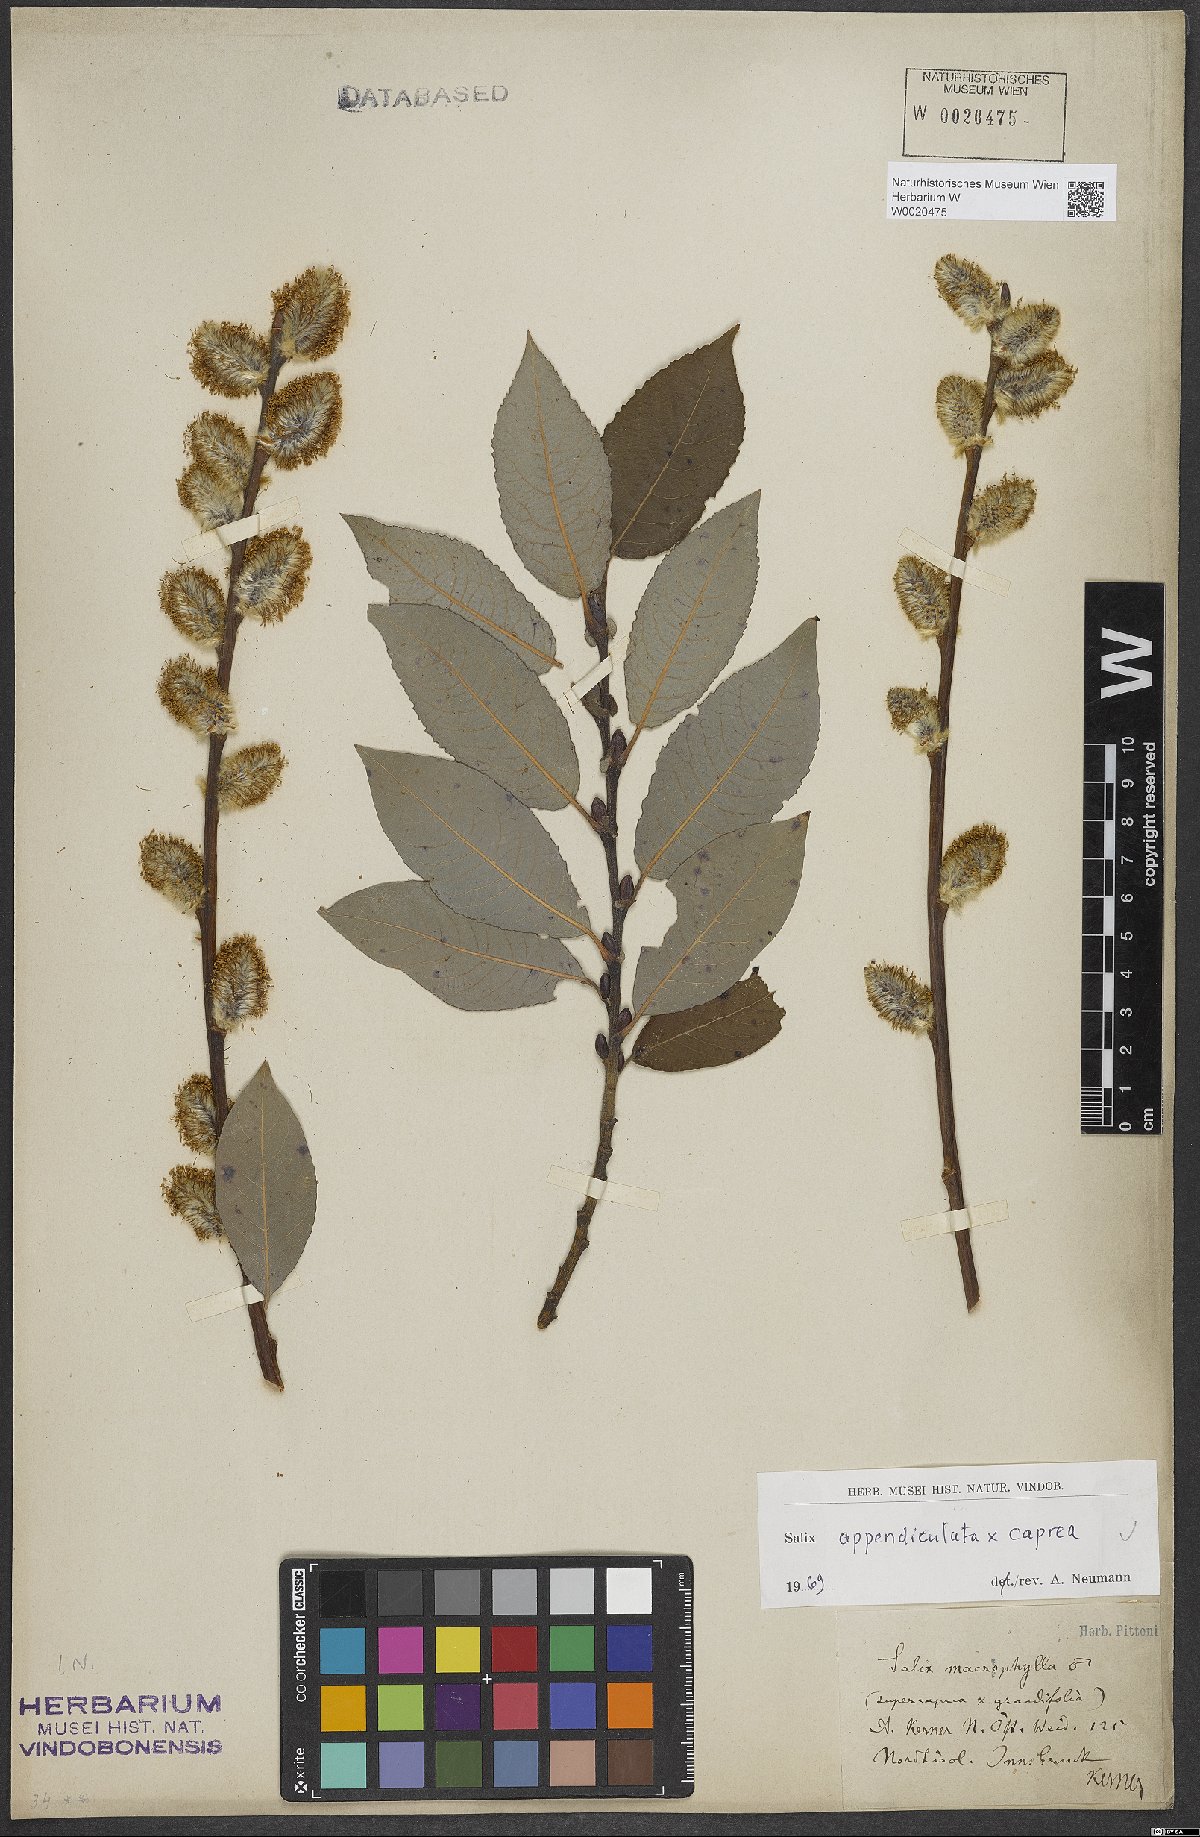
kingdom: Plantae
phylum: Tracheophyta
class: Magnoliopsida
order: Malpighiales
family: Salicaceae
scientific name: Salicaceae
